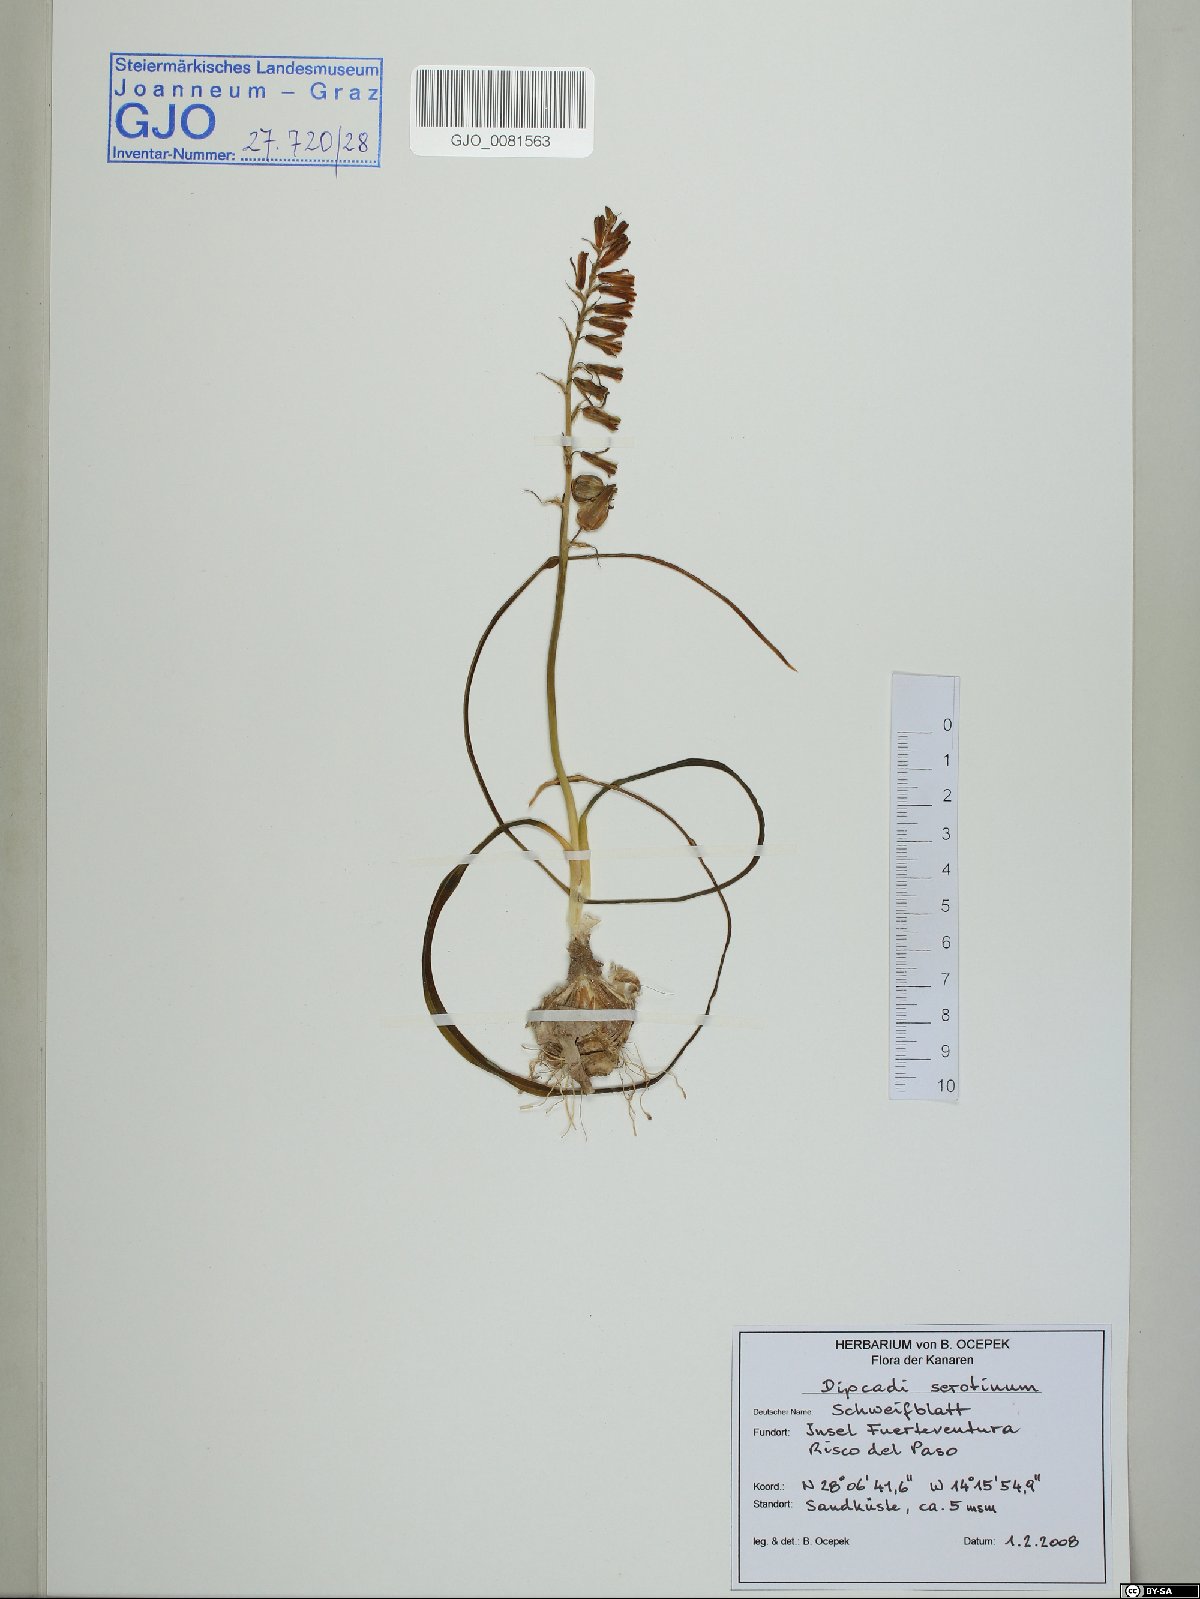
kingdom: Plantae
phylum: Tracheophyta
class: Liliopsida
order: Asparagales
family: Asparagaceae
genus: Dipcadi
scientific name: Dipcadi serotinum
